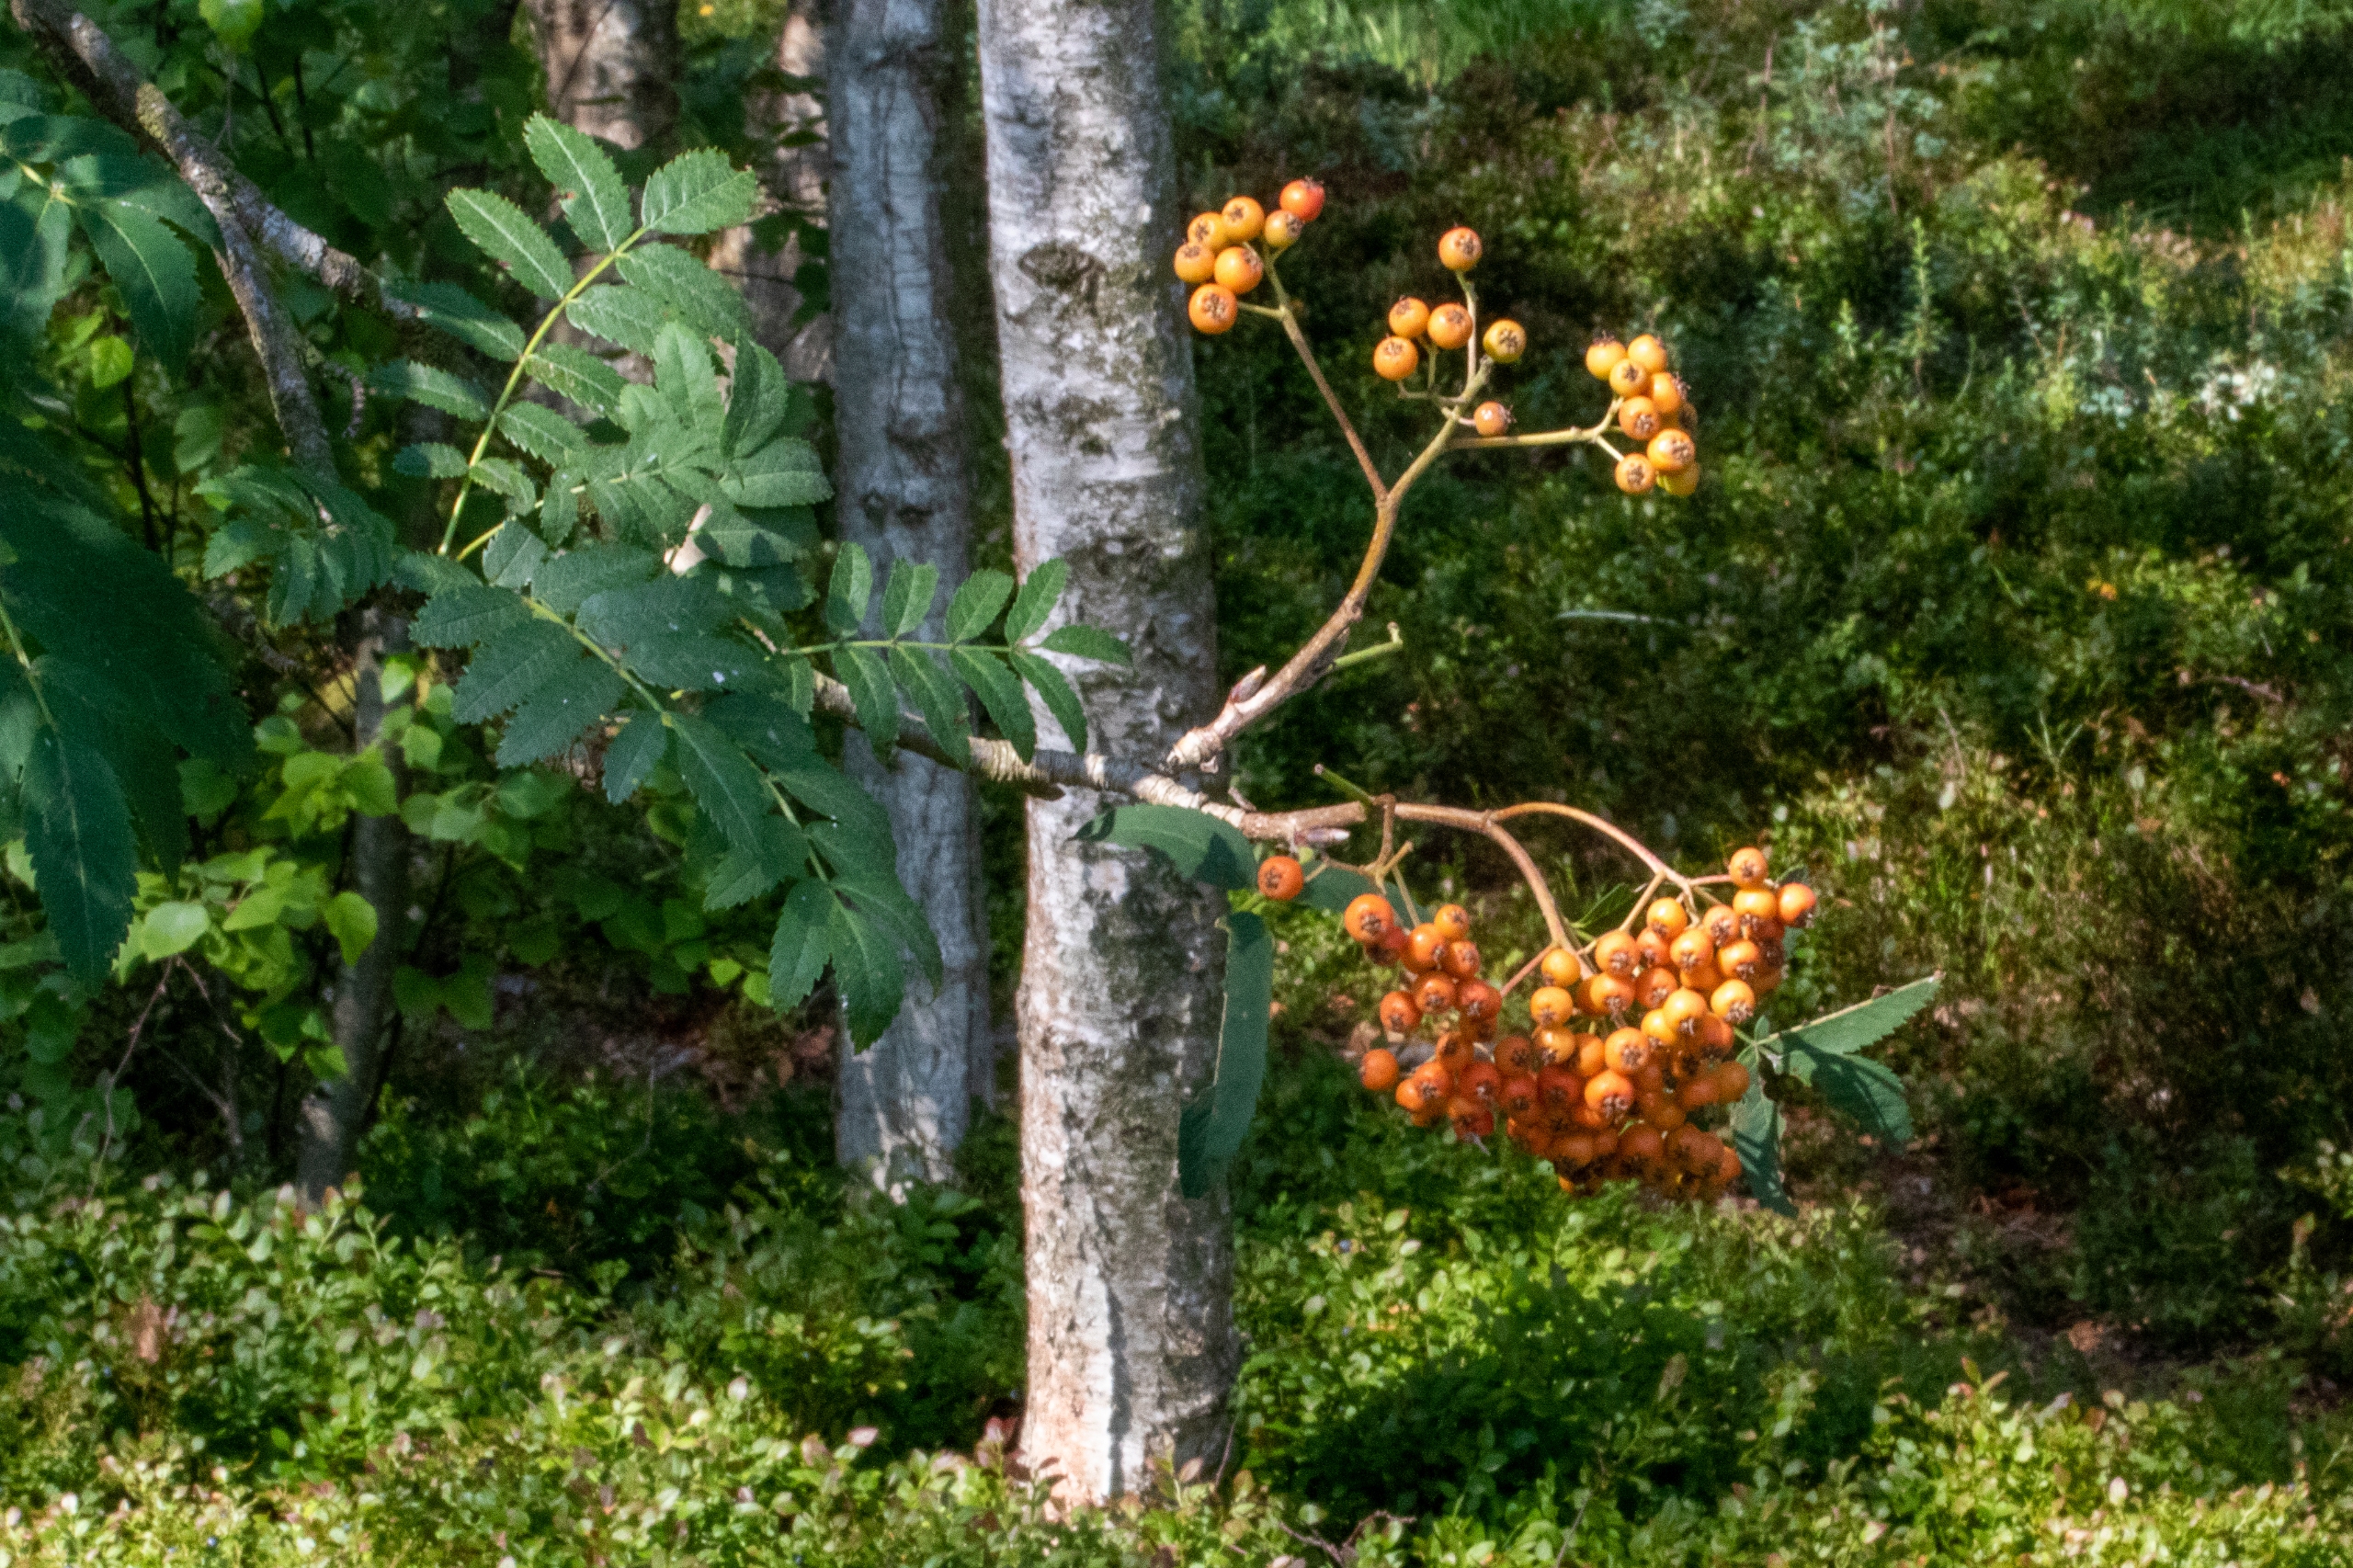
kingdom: Plantae
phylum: Tracheophyta
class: Magnoliopsida
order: Rosales
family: Rosaceae
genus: Sorbus
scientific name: Sorbus aucuparia
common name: Almindelig røn
